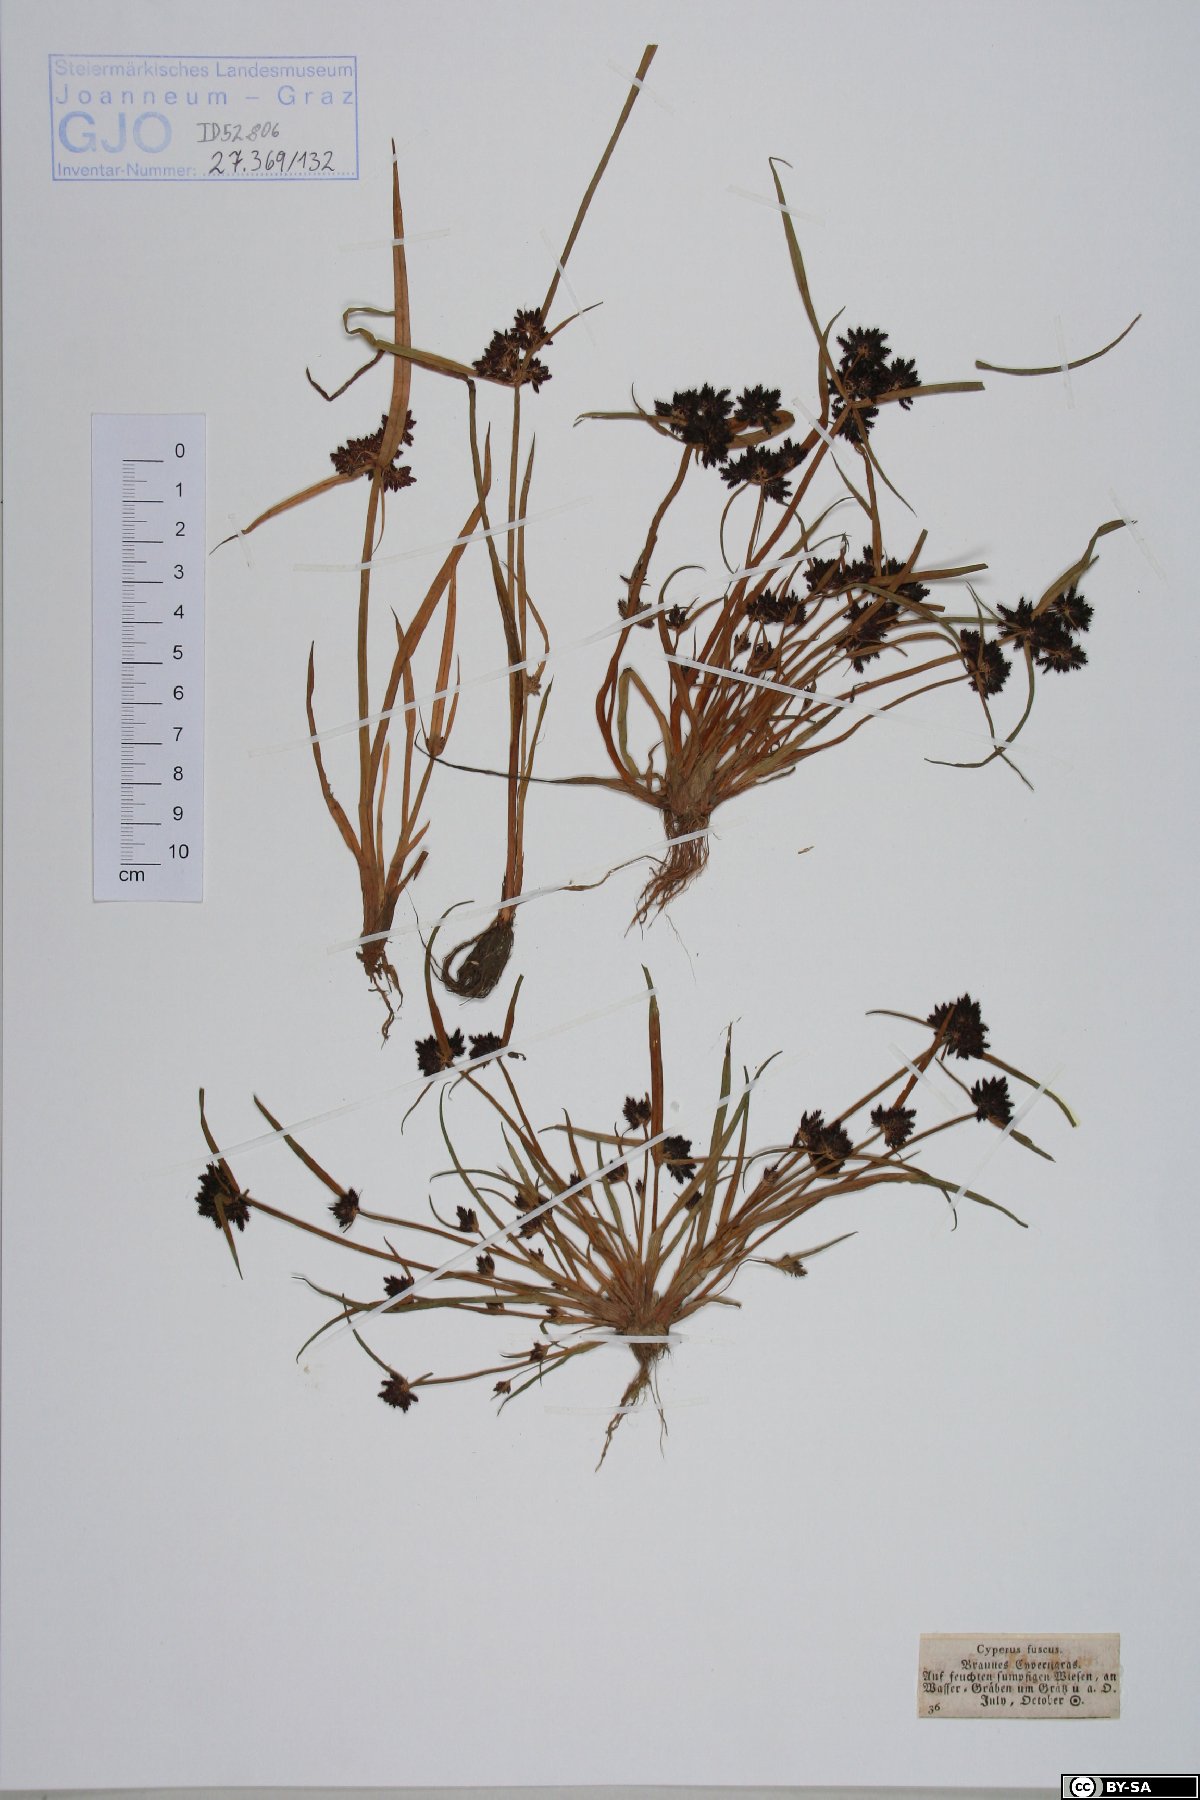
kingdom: Plantae
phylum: Tracheophyta
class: Liliopsida
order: Poales
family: Cyperaceae
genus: Cyperus
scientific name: Cyperus fuscus
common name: Brown galingale
